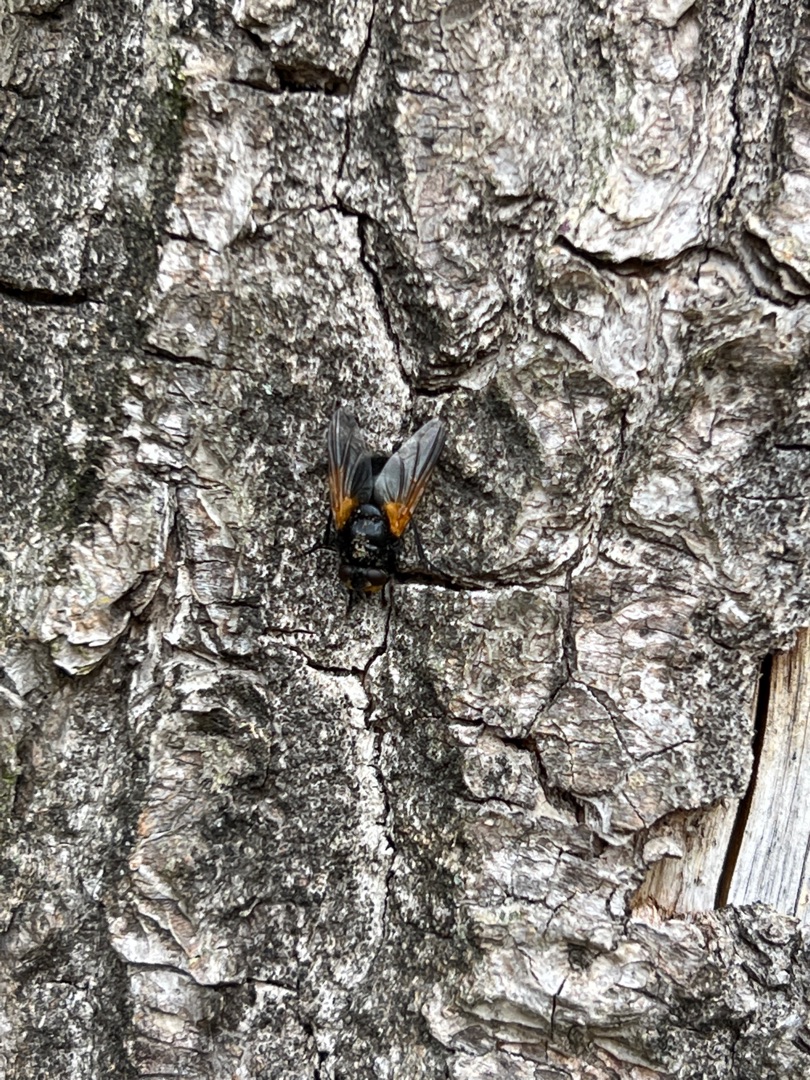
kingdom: Animalia
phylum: Arthropoda
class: Insecta
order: Diptera
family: Muscidae
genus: Mesembrina
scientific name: Mesembrina meridiana
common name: Gulvinget flue
